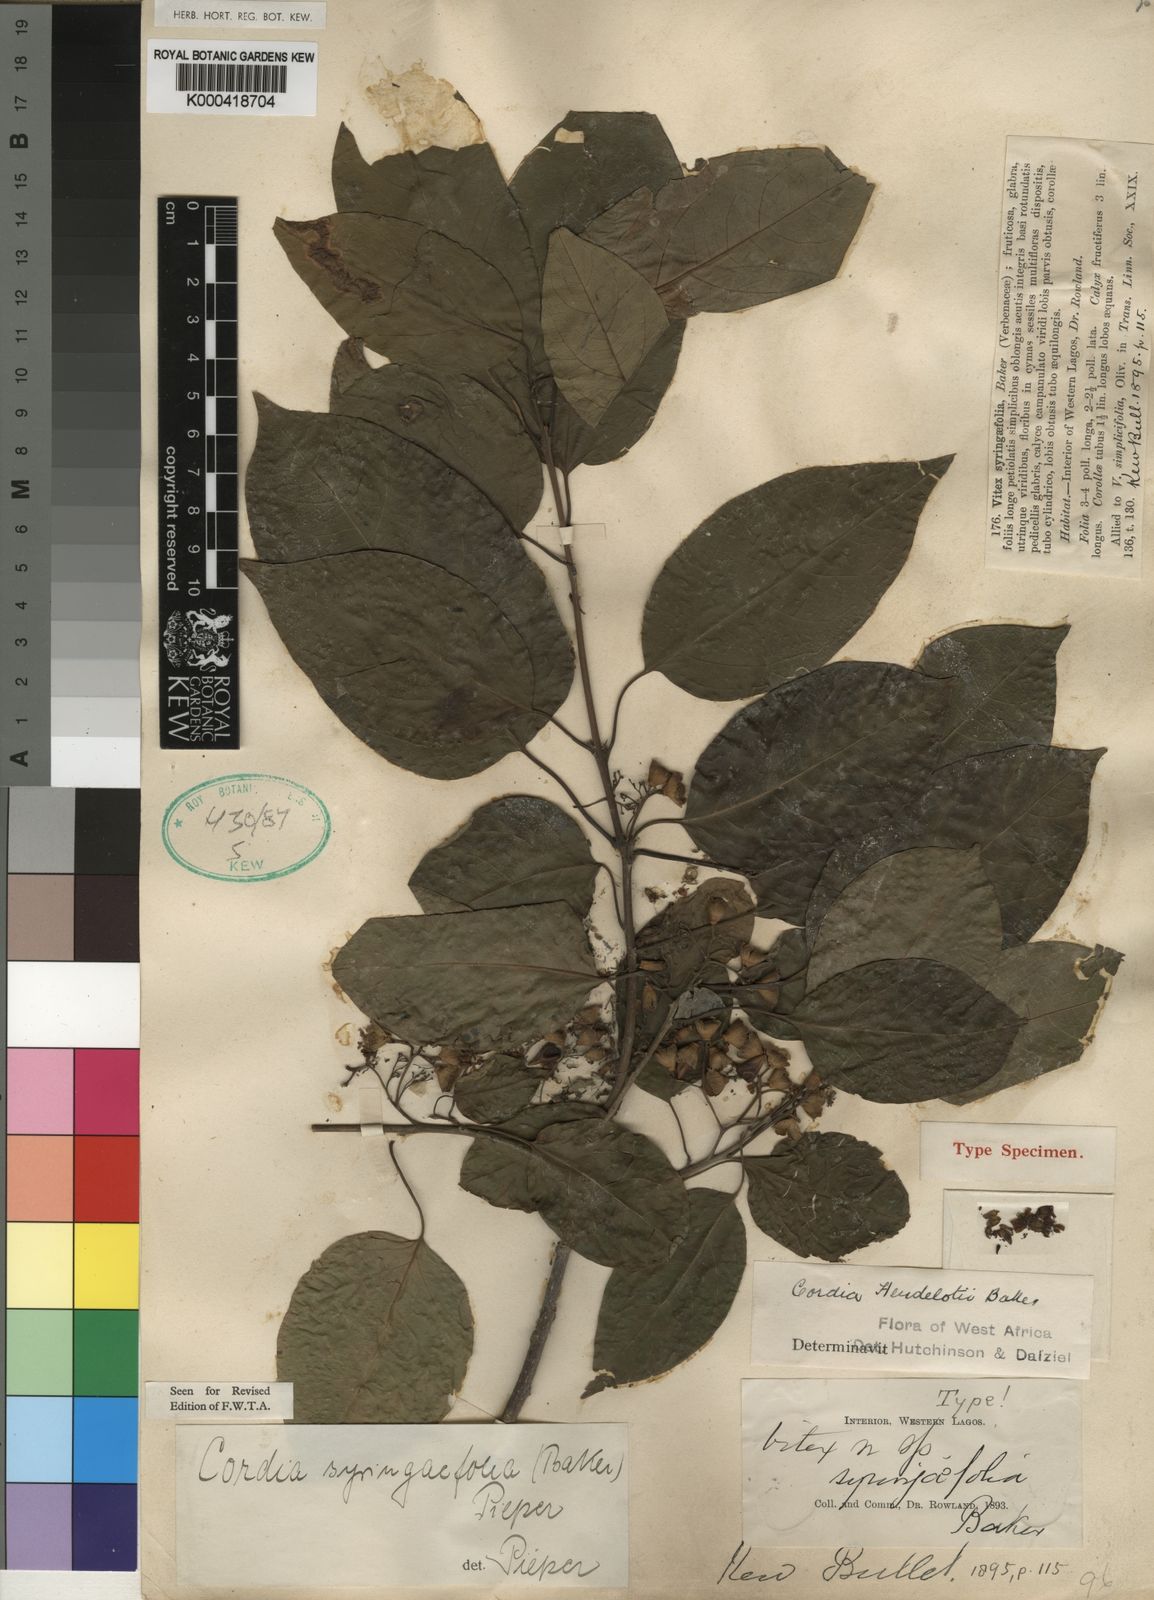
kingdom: Plantae
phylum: Tracheophyta
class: Magnoliopsida
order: Boraginales
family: Cordiaceae
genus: Cordia
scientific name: Cordia
